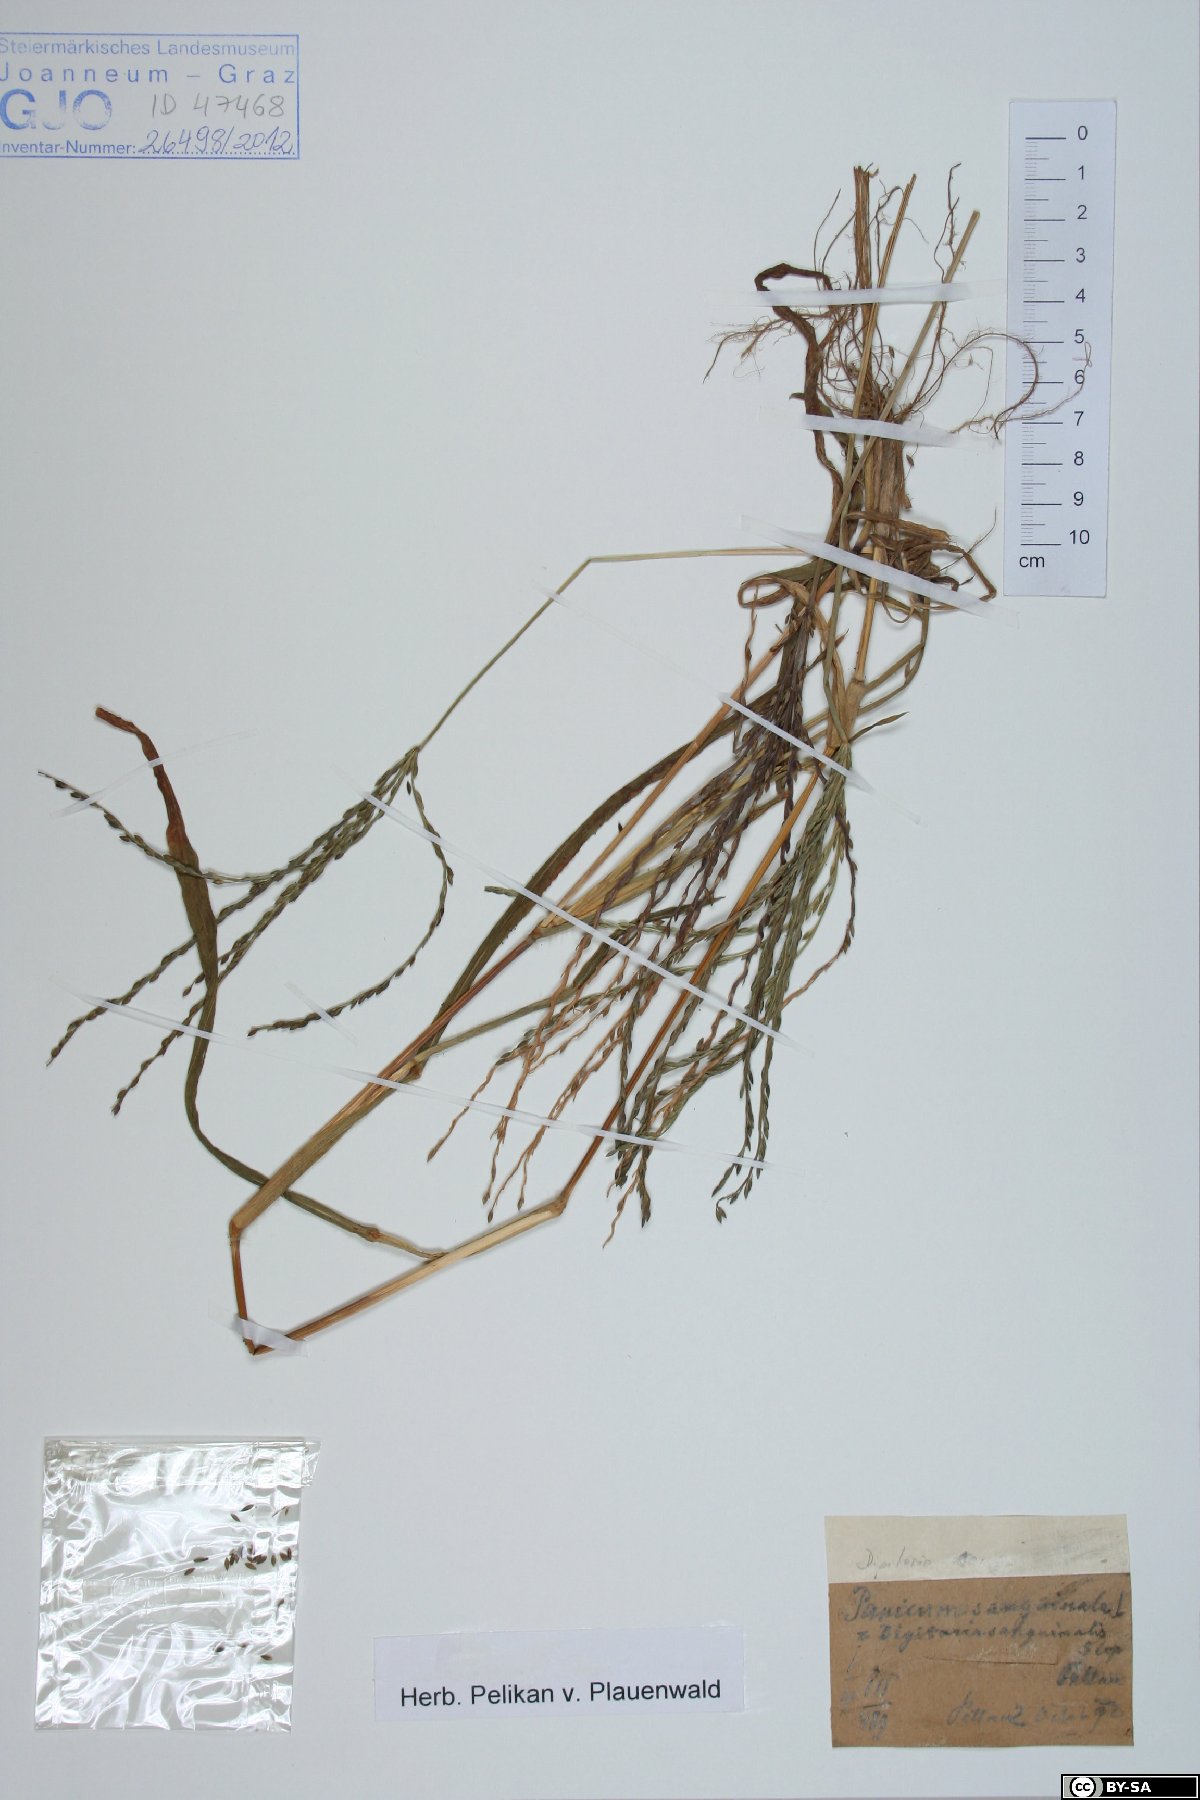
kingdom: Plantae
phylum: Tracheophyta
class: Liliopsida
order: Poales
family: Poaceae
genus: Digitaria
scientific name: Digitaria sanguinalis
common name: Hairy crabgrass
